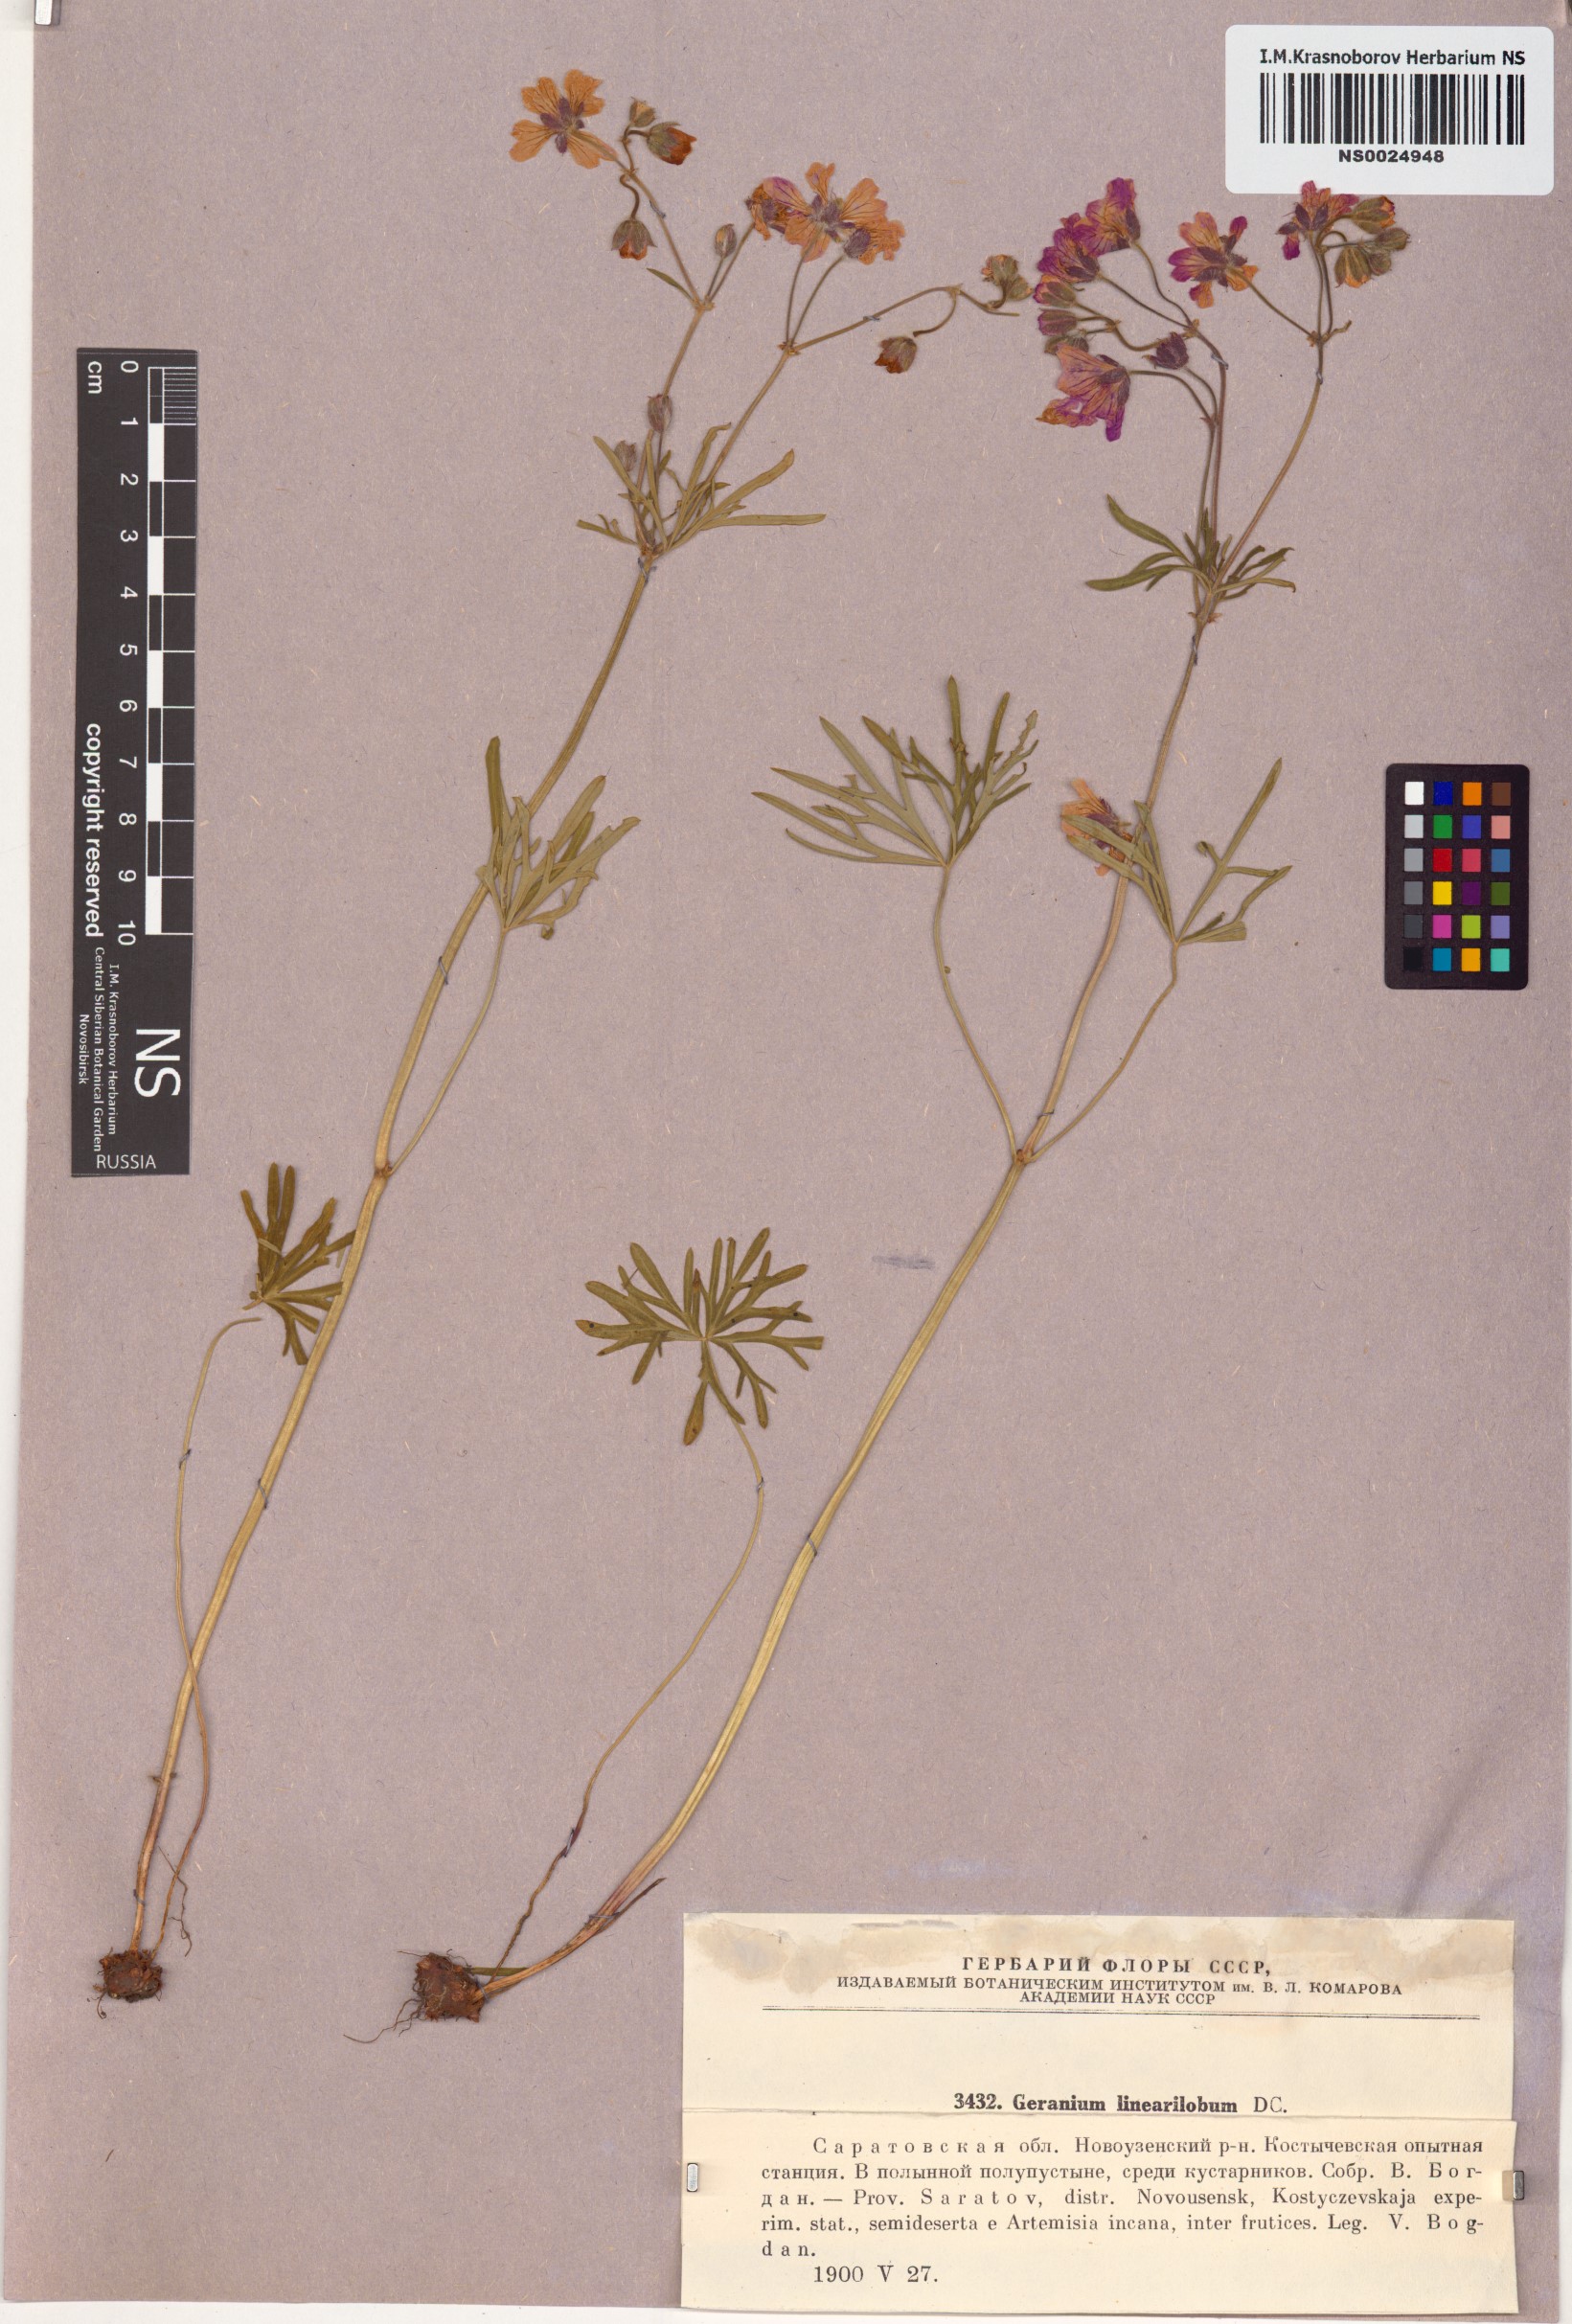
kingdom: Plantae
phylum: Tracheophyta
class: Magnoliopsida
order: Geraniales
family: Geraniaceae
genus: Geranium
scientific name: Geranium linearilobum
